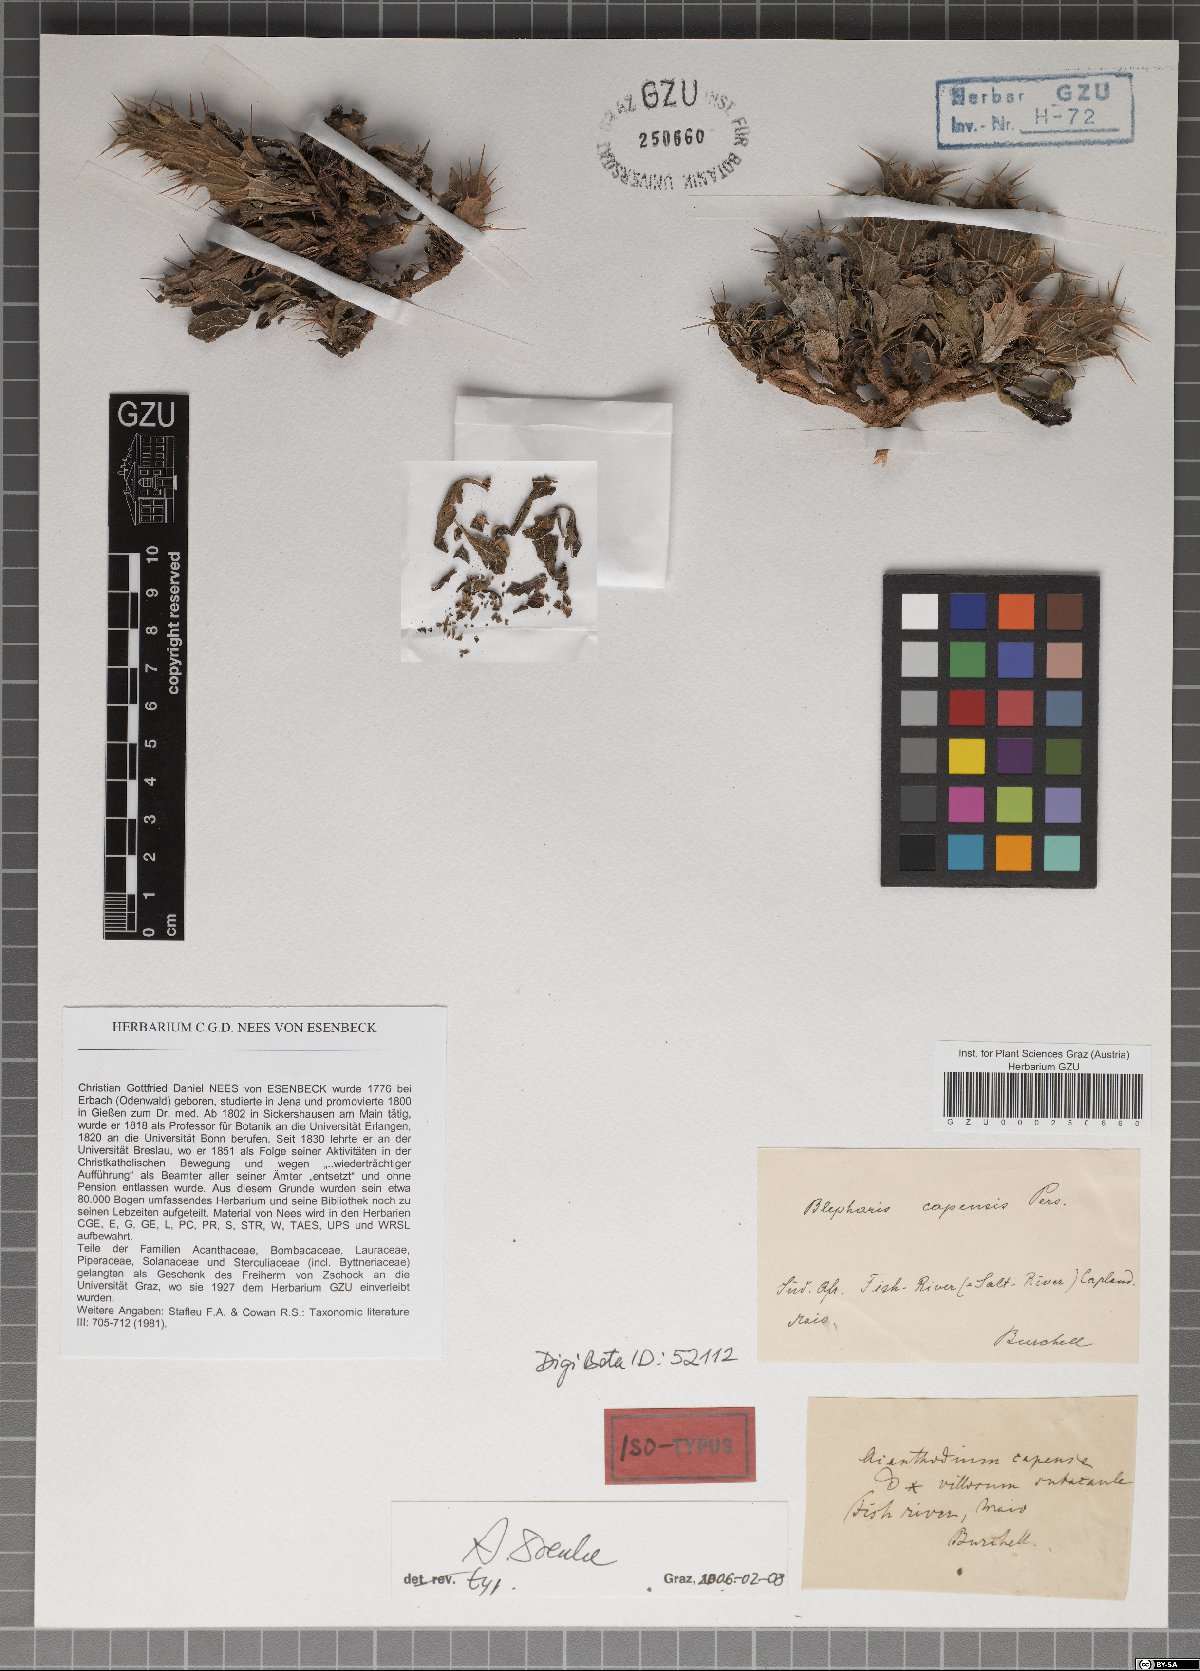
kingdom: Plantae
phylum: Tracheophyta
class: Magnoliopsida
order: Lamiales
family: Acanthaceae
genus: Blepharis
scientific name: Blepharis capensis
